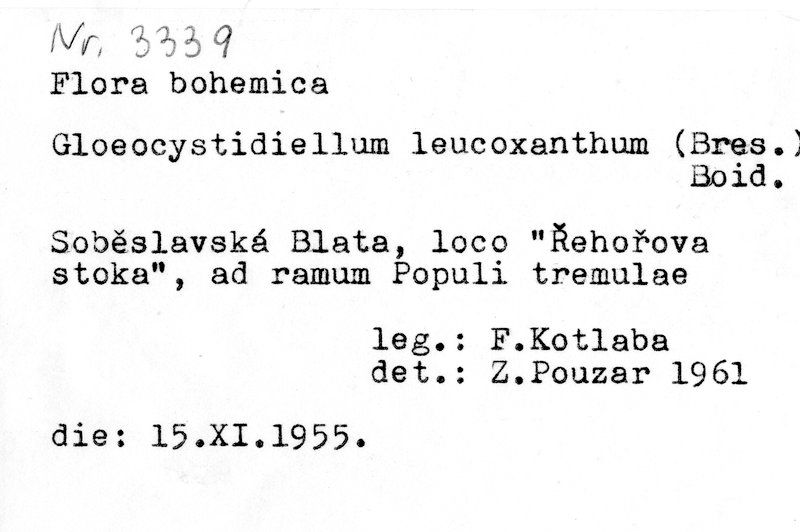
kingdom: Plantae
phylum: Tracheophyta
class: Magnoliopsida
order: Malpighiales
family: Salicaceae
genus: Populus
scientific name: Populus tremula
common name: European aspen
